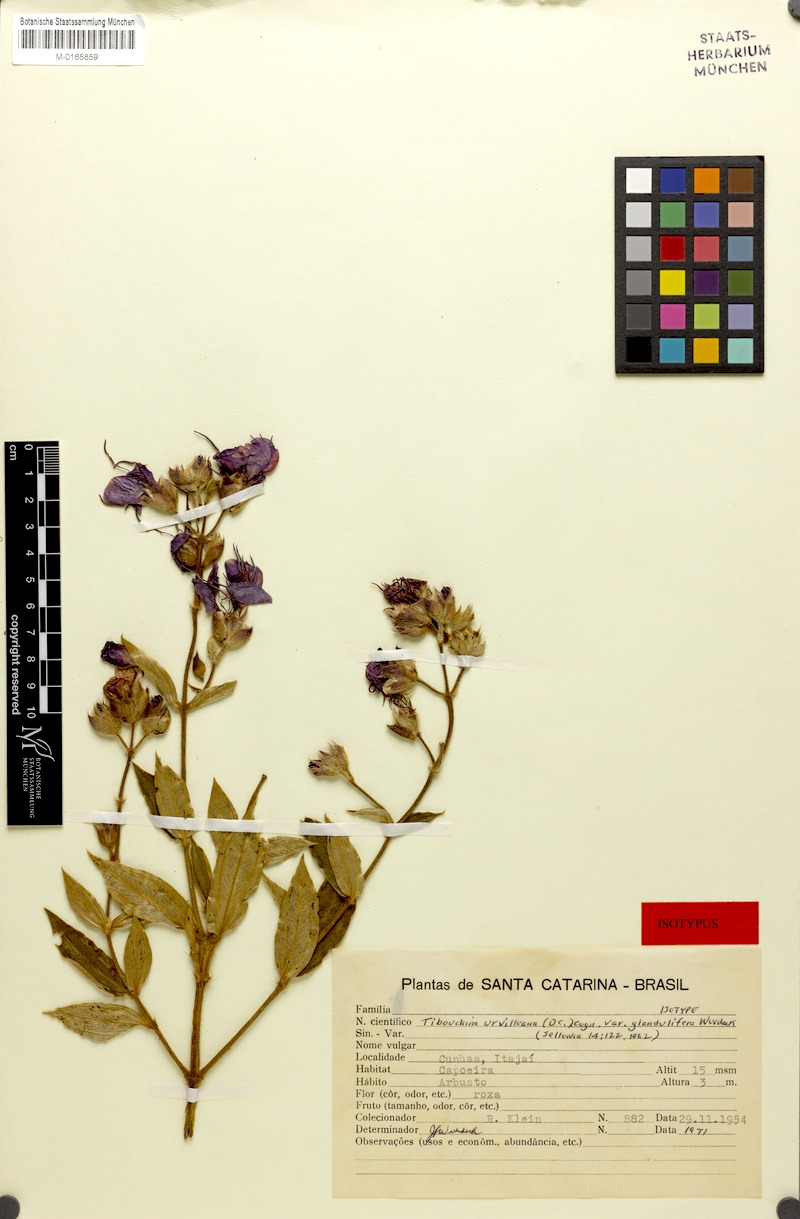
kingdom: Plantae
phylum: Tracheophyta
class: Magnoliopsida
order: Myrtales
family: Melastomataceae
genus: Pleroma
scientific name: Pleroma urvilleanum
